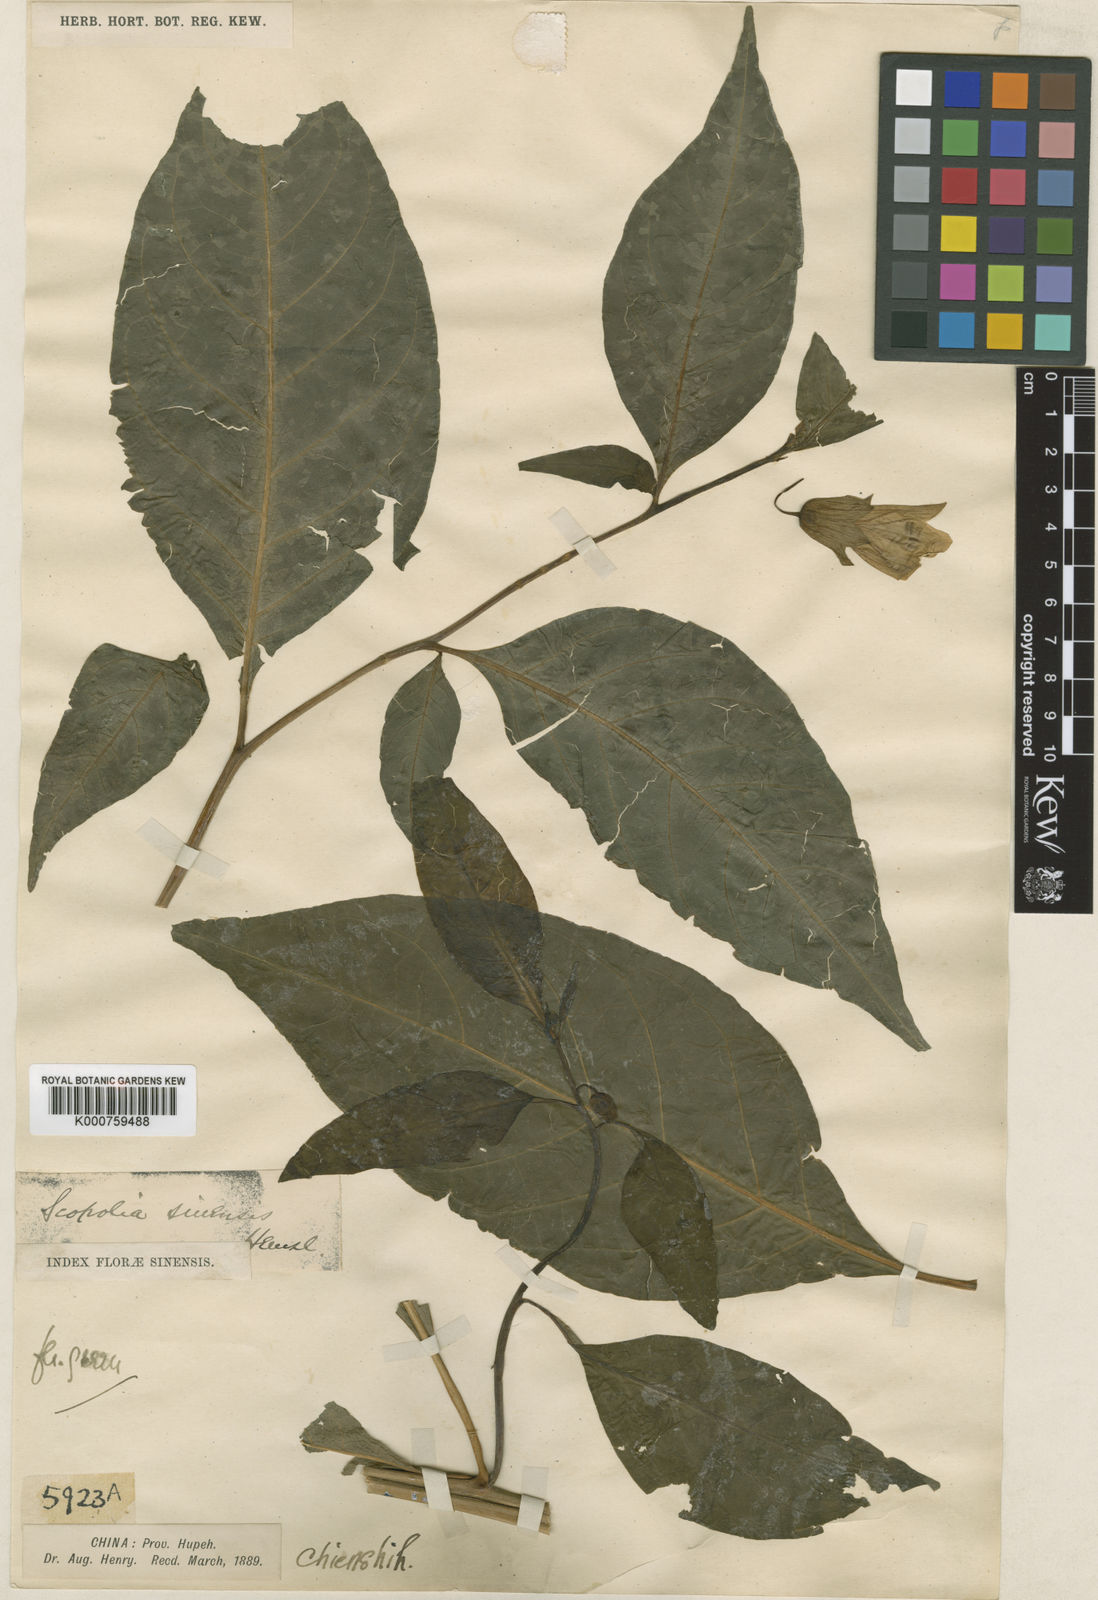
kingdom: Plantae
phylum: Tracheophyta
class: Magnoliopsida
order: Solanales
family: Solanaceae
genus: Atropanthe
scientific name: Atropanthe sinensis
